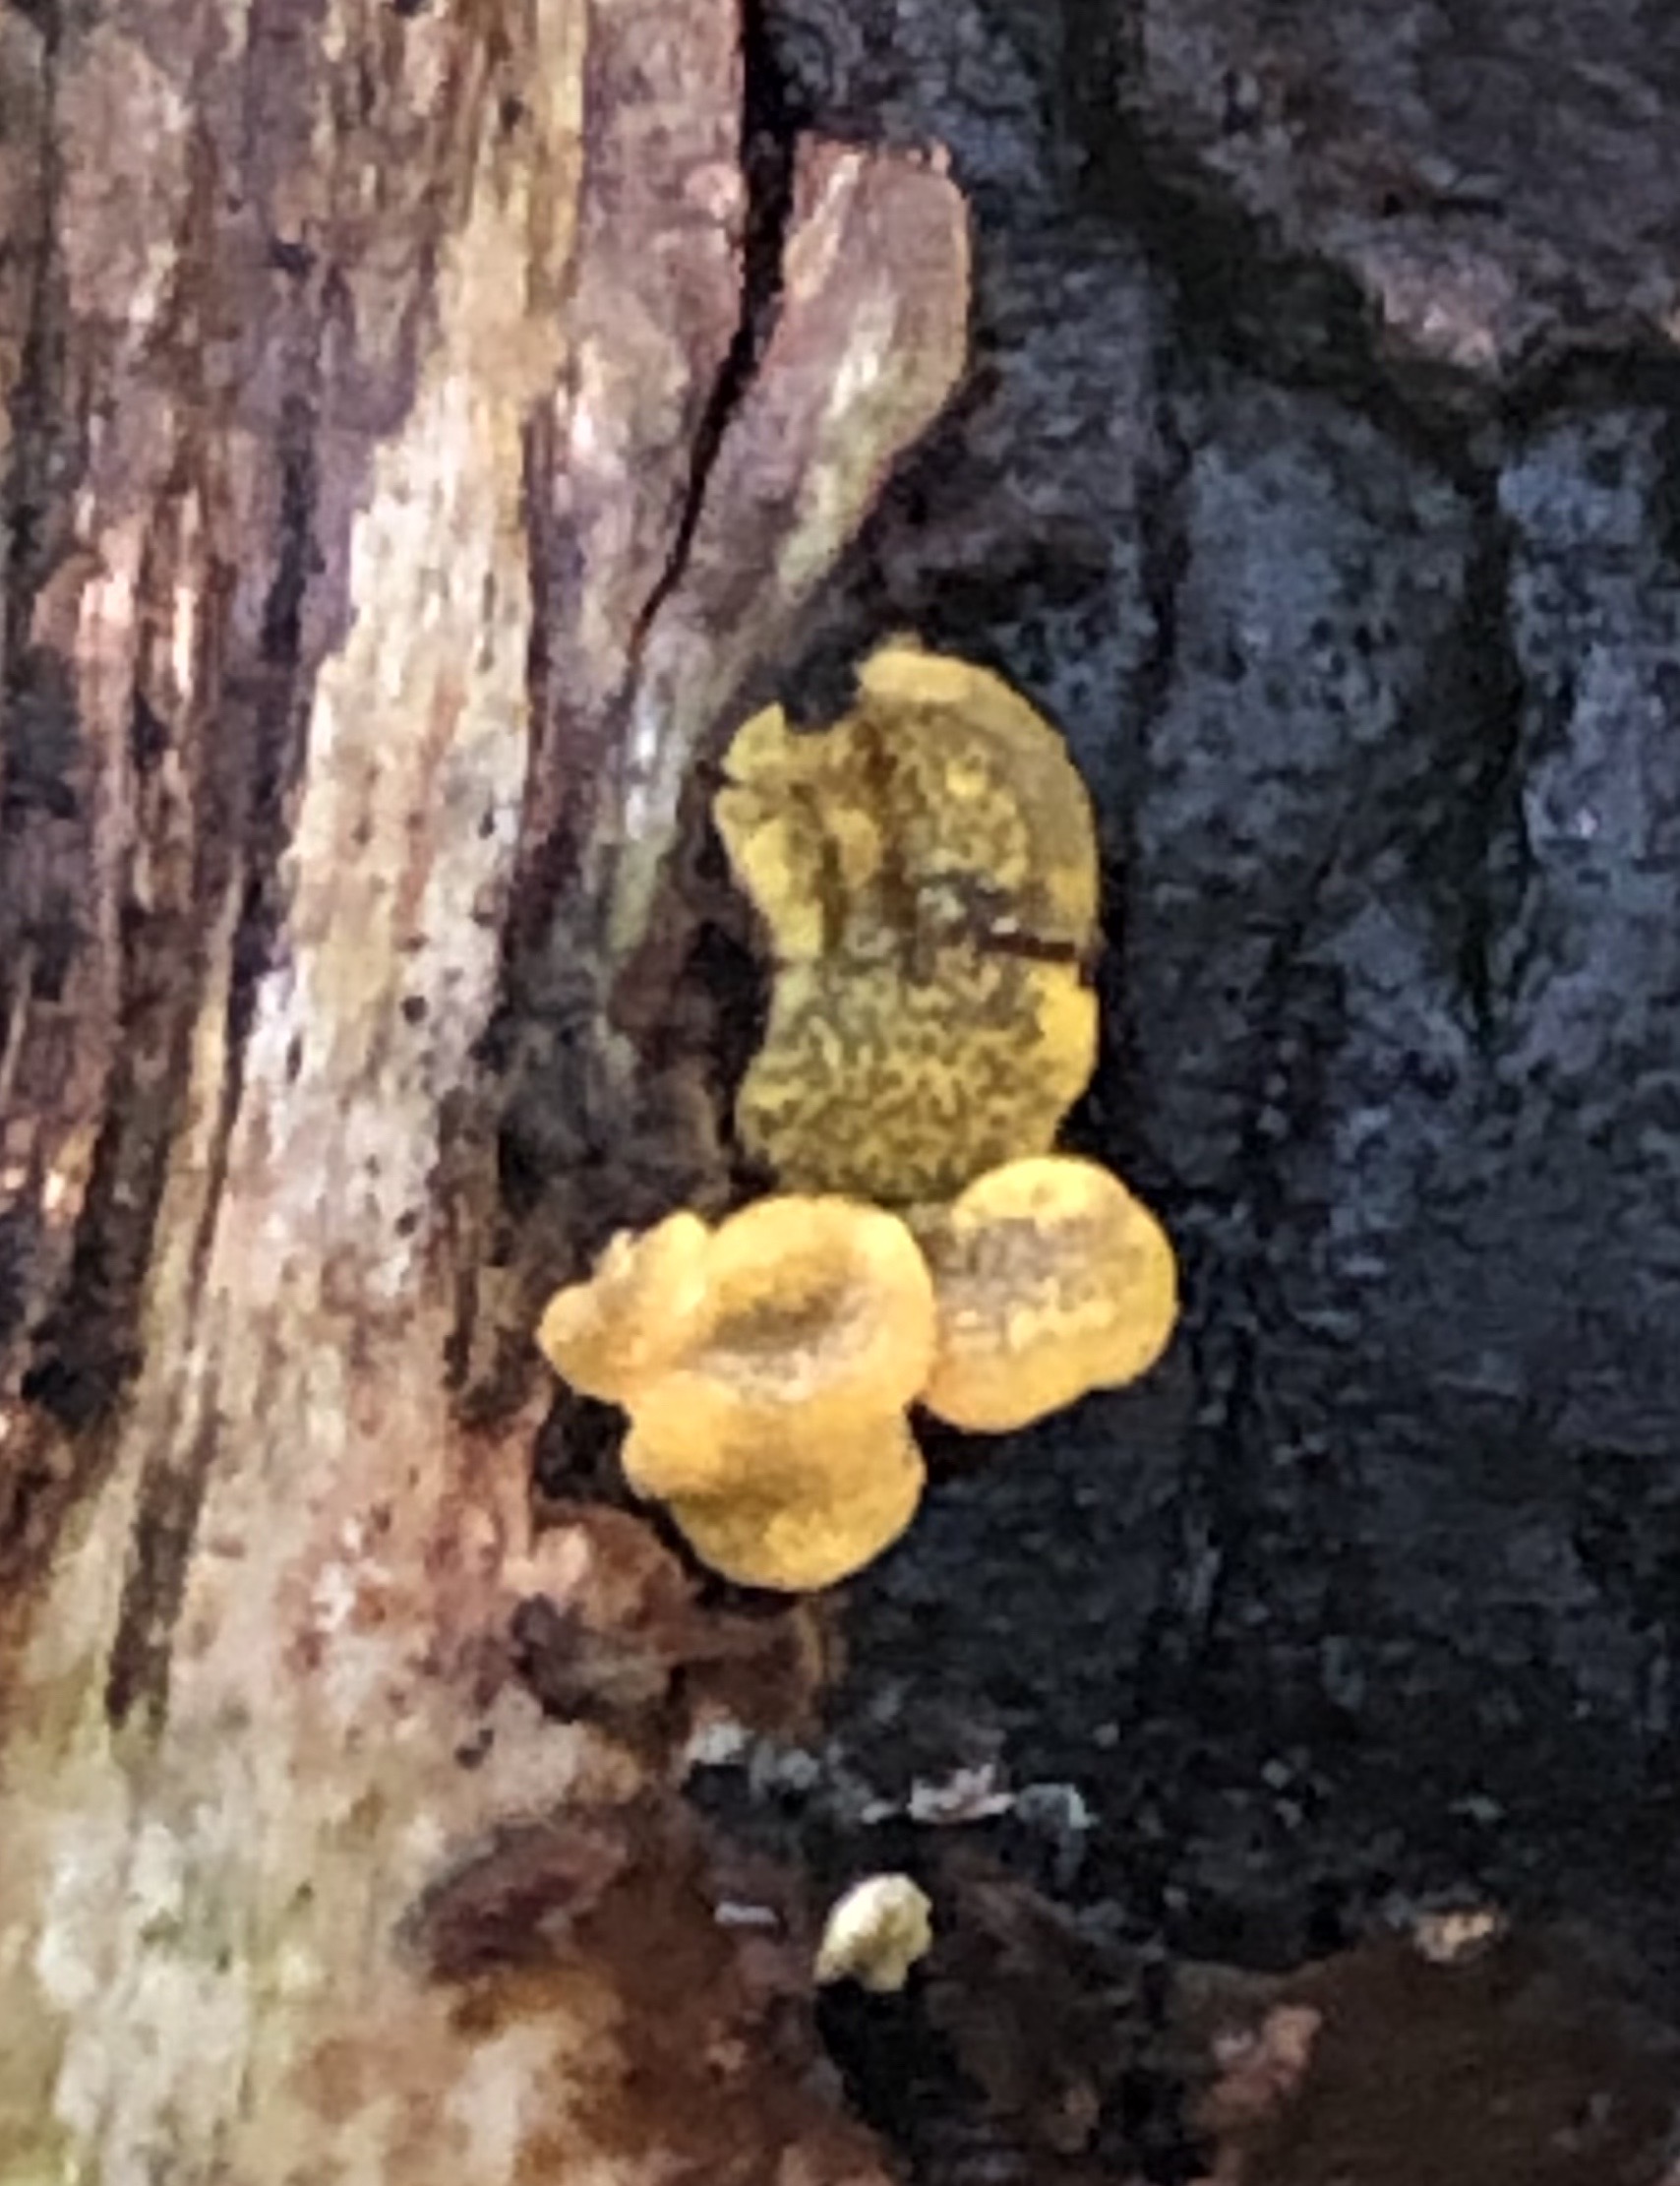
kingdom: Fungi
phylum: Ascomycota
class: Sordariomycetes
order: Hypocreales
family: Hypocreaceae
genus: Trichoderma
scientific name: Trichoderma aureoviride
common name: æggegul kødkerne
